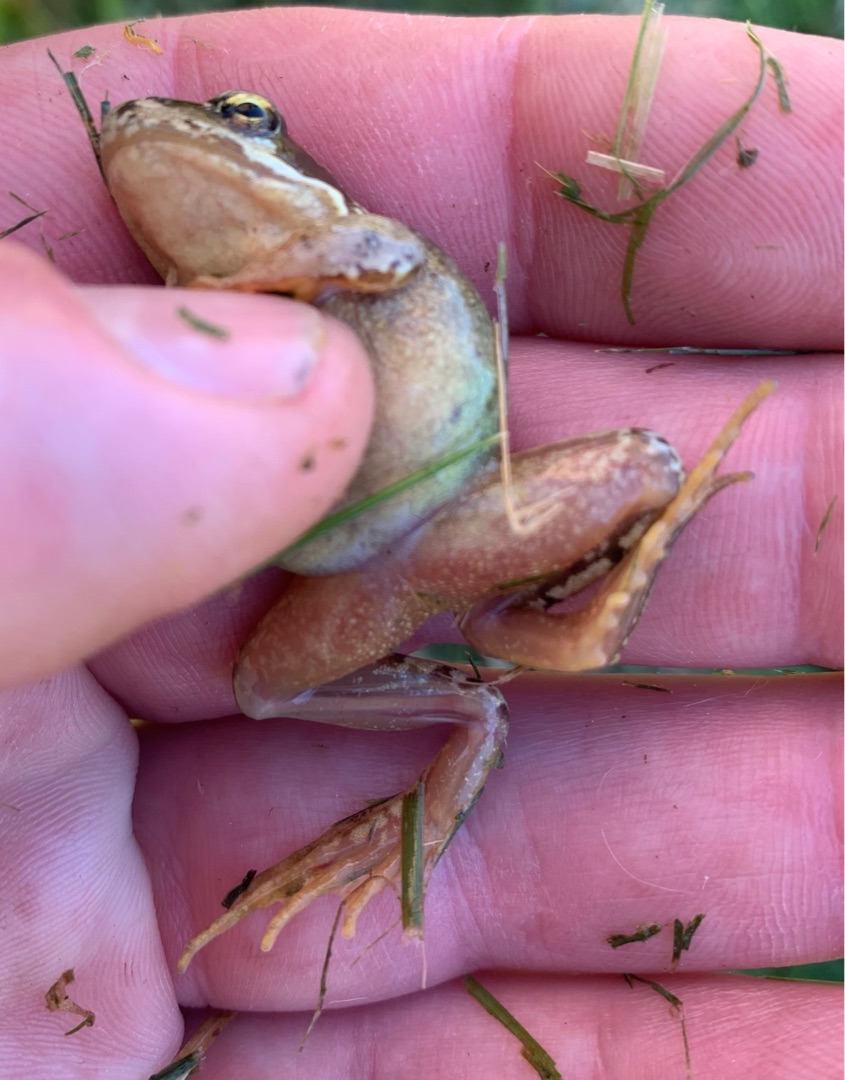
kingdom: Animalia
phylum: Chordata
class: Amphibia
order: Anura
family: Ranidae
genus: Rana
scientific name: Rana temporaria
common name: Butsnudet frø
